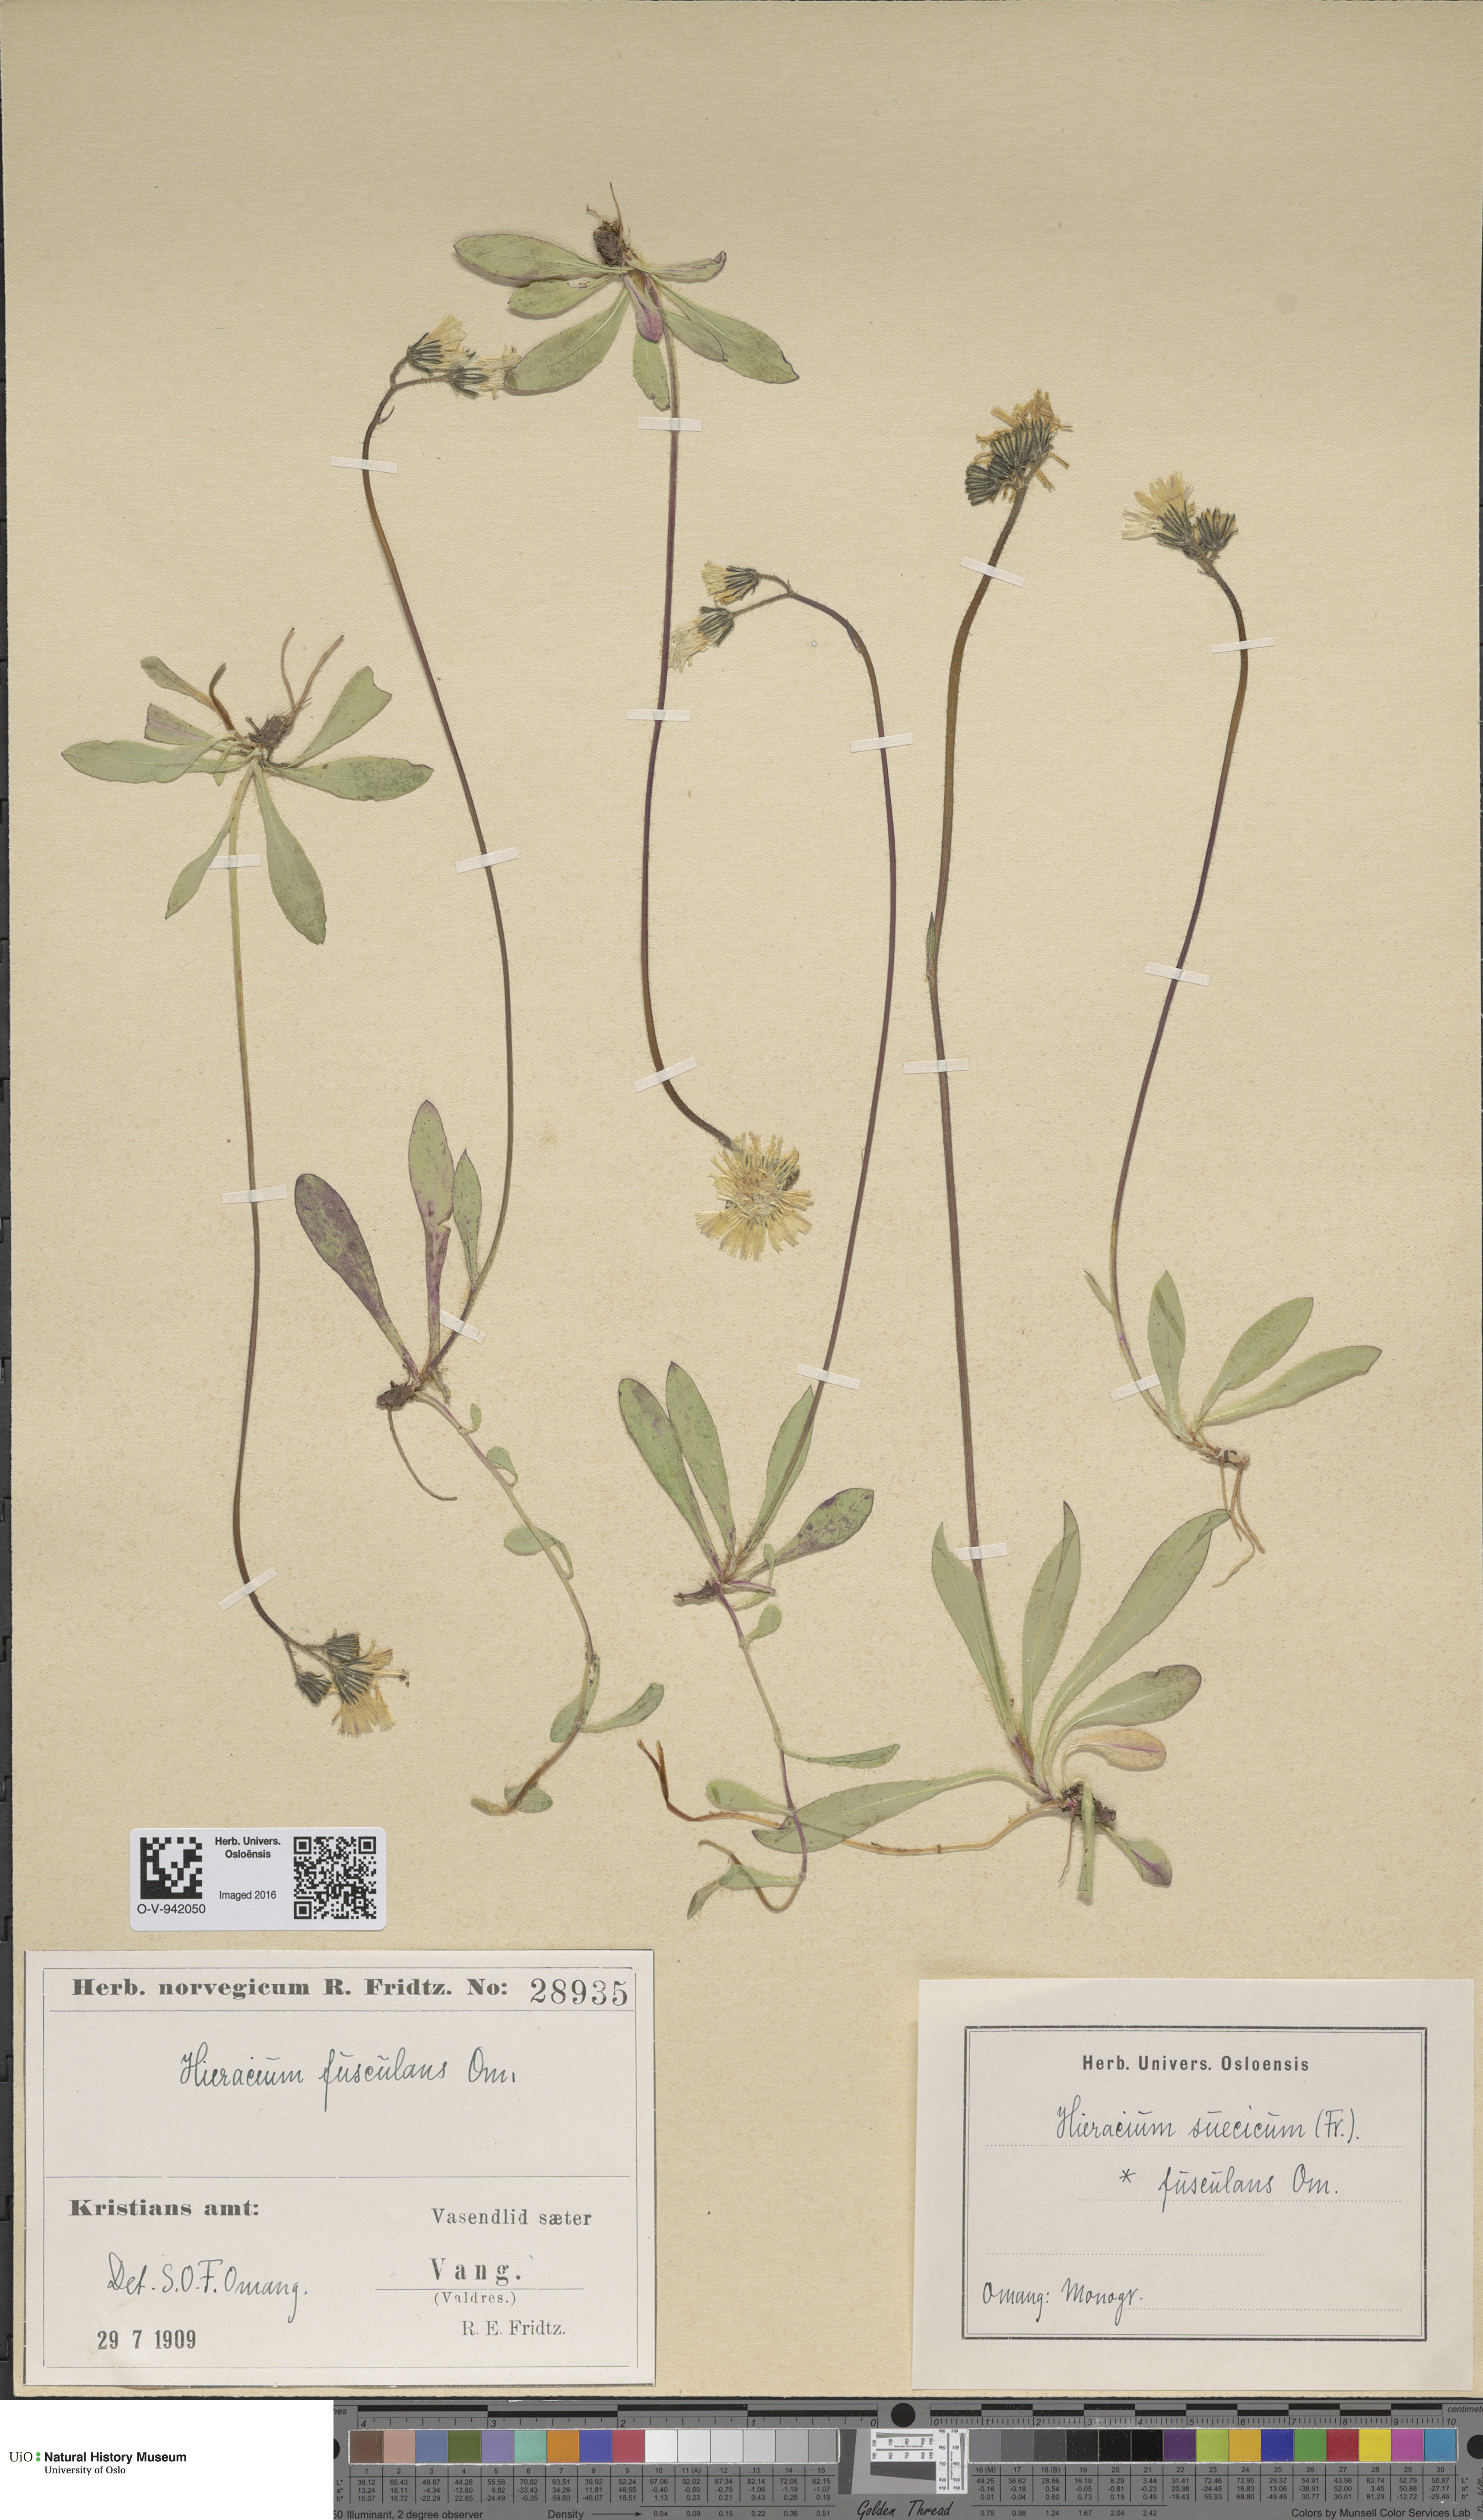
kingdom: Plantae
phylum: Tracheophyta
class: Magnoliopsida
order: Asterales
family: Asteraceae
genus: Pilosella
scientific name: Pilosella dubia
